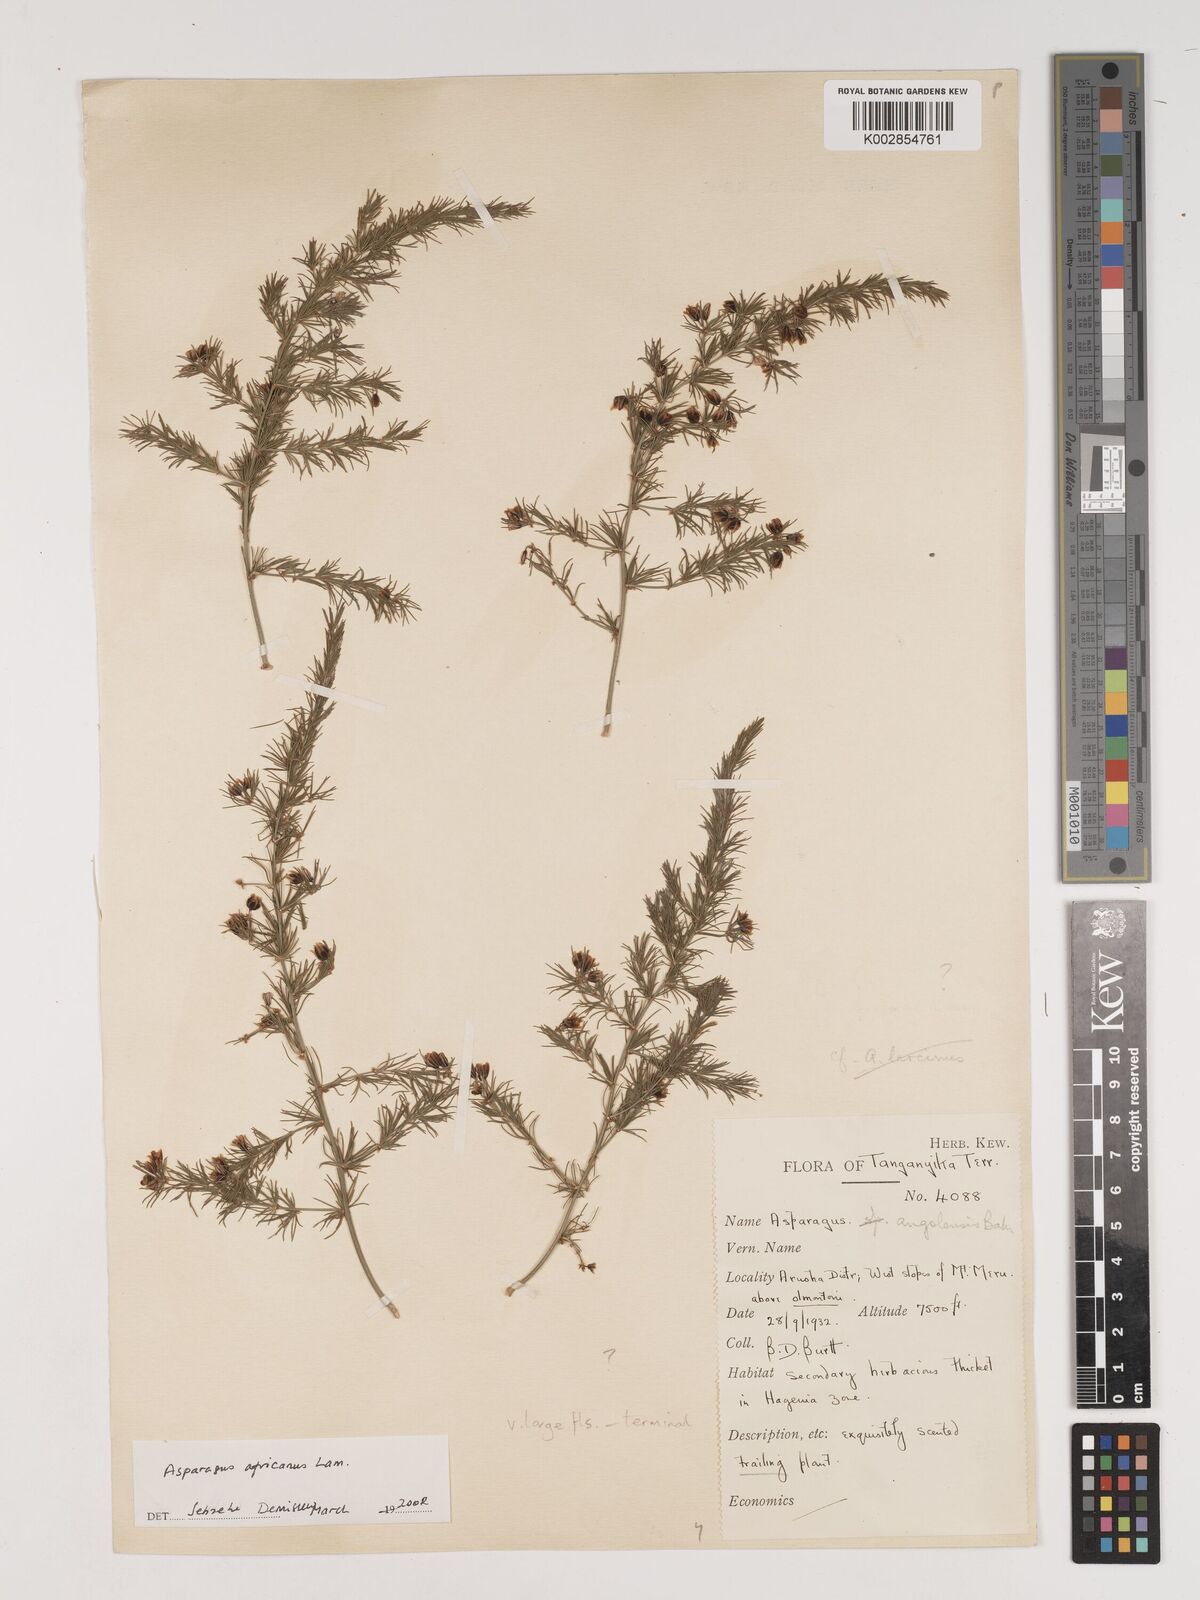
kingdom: Plantae
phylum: Tracheophyta
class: Liliopsida
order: Asparagales
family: Asparagaceae
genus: Asparagus
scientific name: Asparagus africanus
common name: Asparagus-fern
